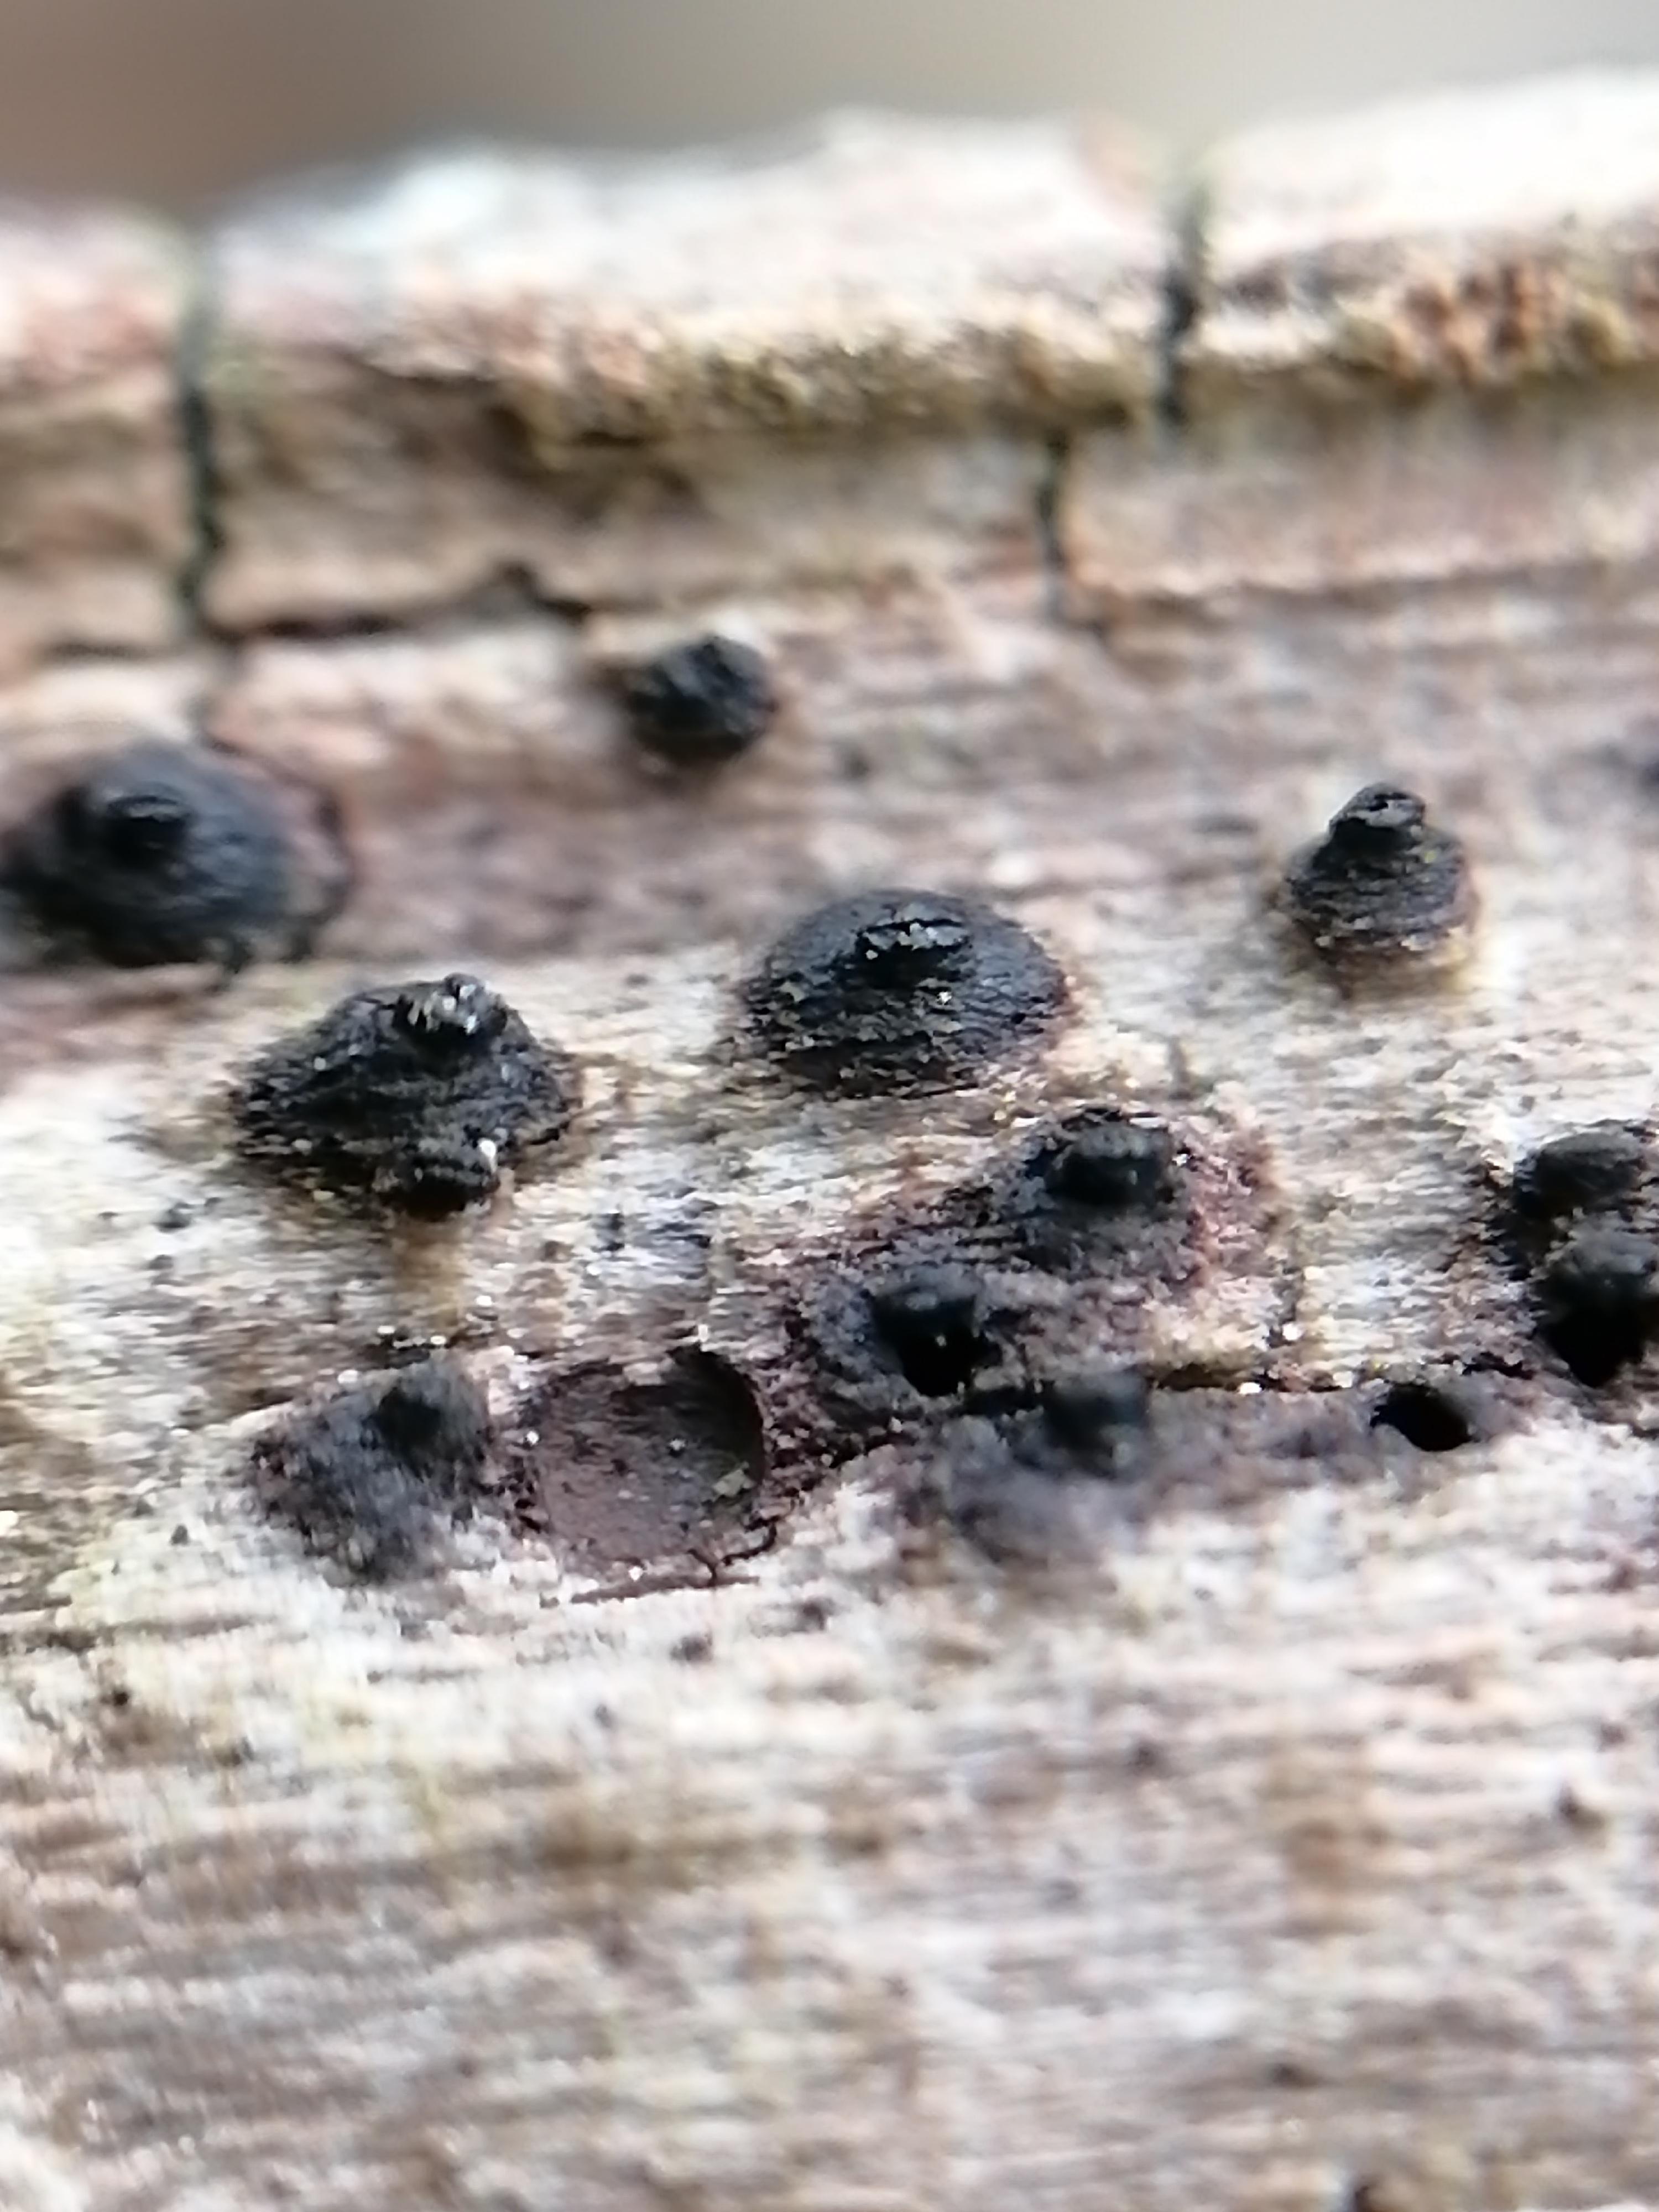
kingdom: Fungi
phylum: Ascomycota
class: Dothideomycetes
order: Pleosporales
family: Lophiostomataceae
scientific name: Lophiostomataceae
